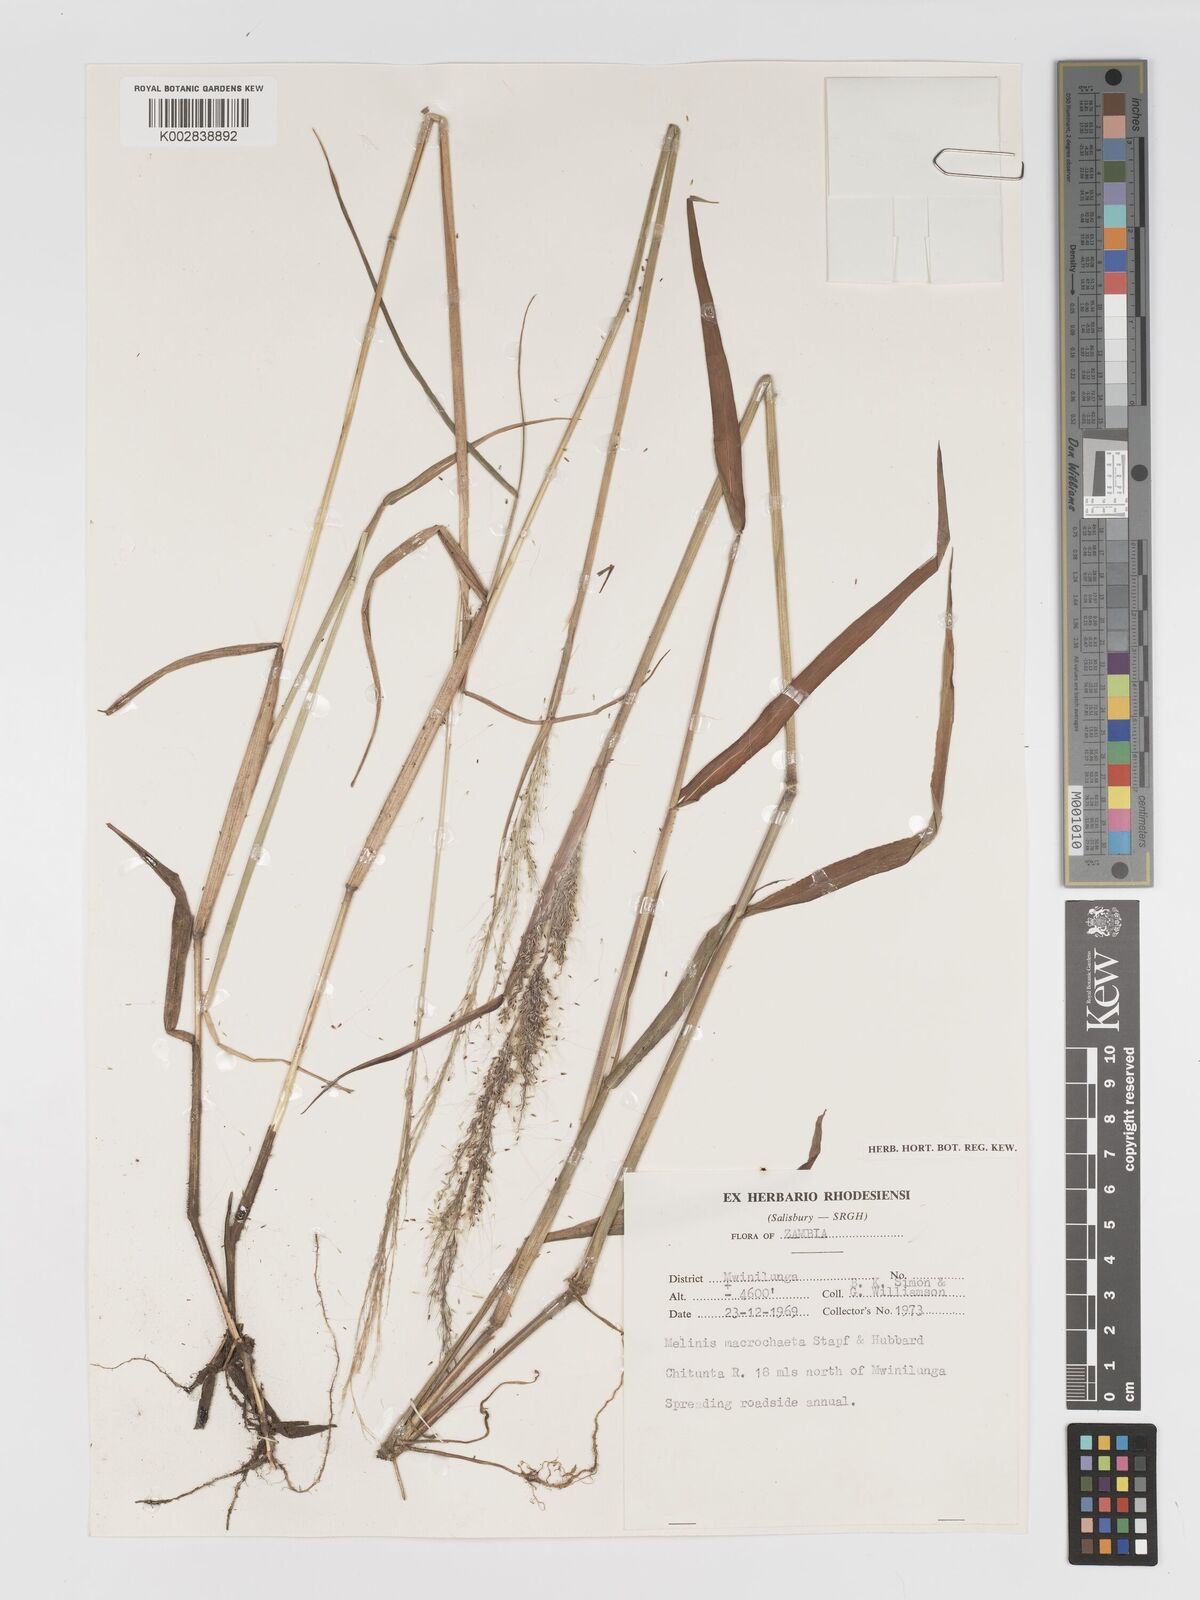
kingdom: Plantae
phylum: Tracheophyta
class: Liliopsida
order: Poales
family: Poaceae
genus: Melinis
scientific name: Melinis macrochaeta
